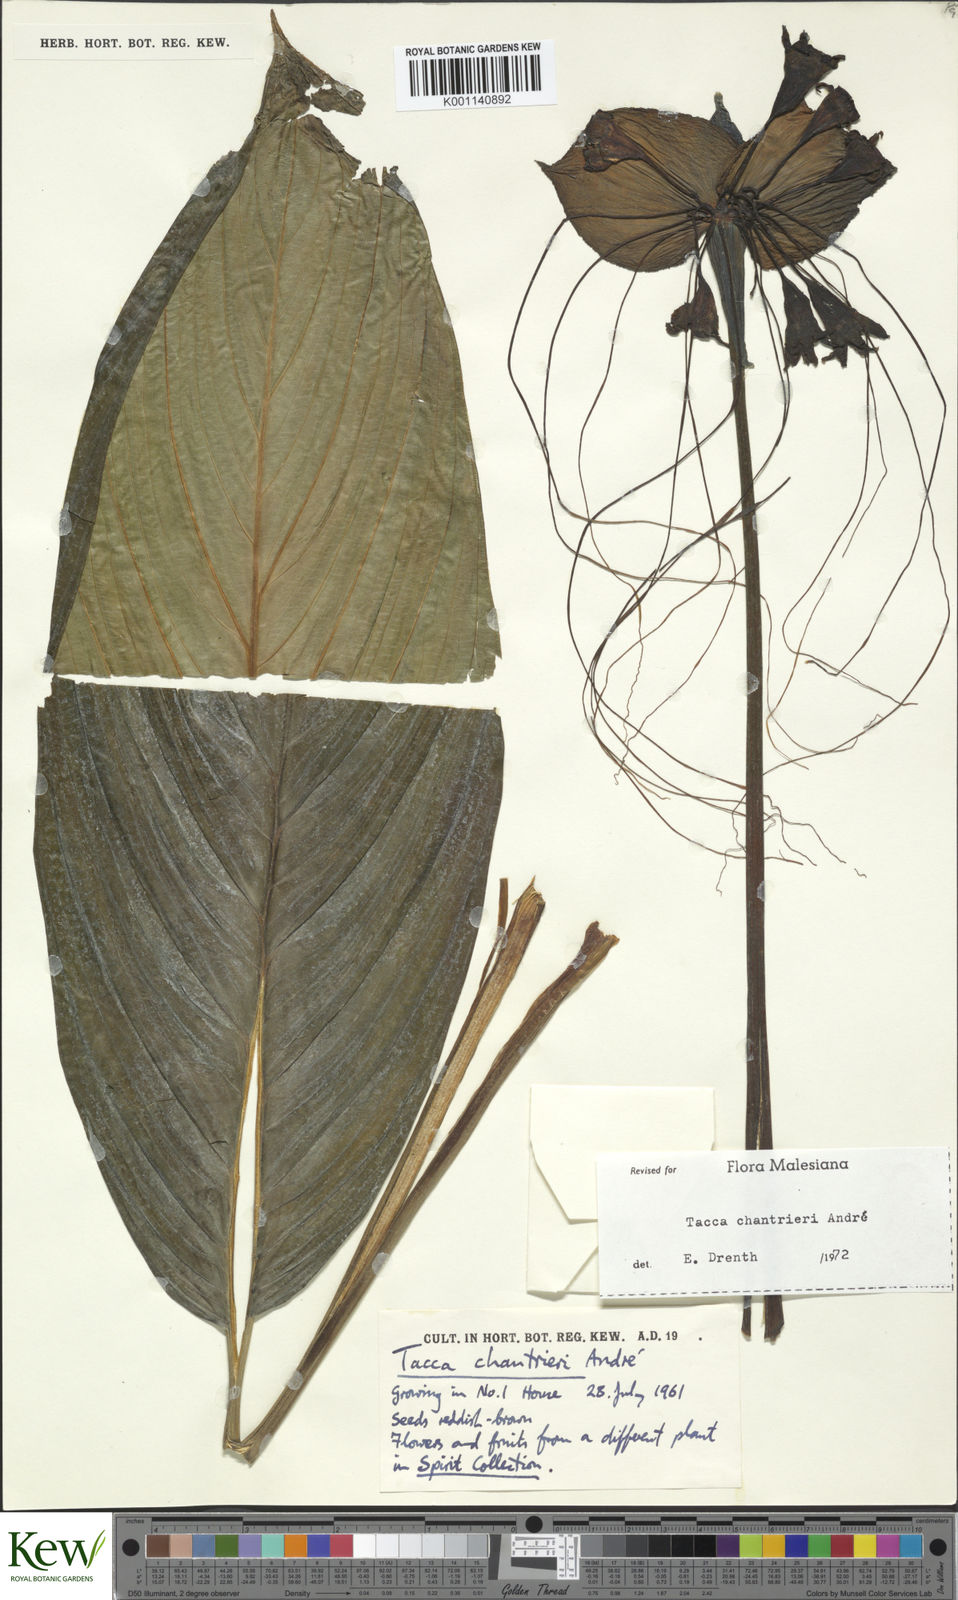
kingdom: Plantae
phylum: Tracheophyta
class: Liliopsida
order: Dioscoreales
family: Dioscoreaceae
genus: Tacca
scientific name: Tacca
